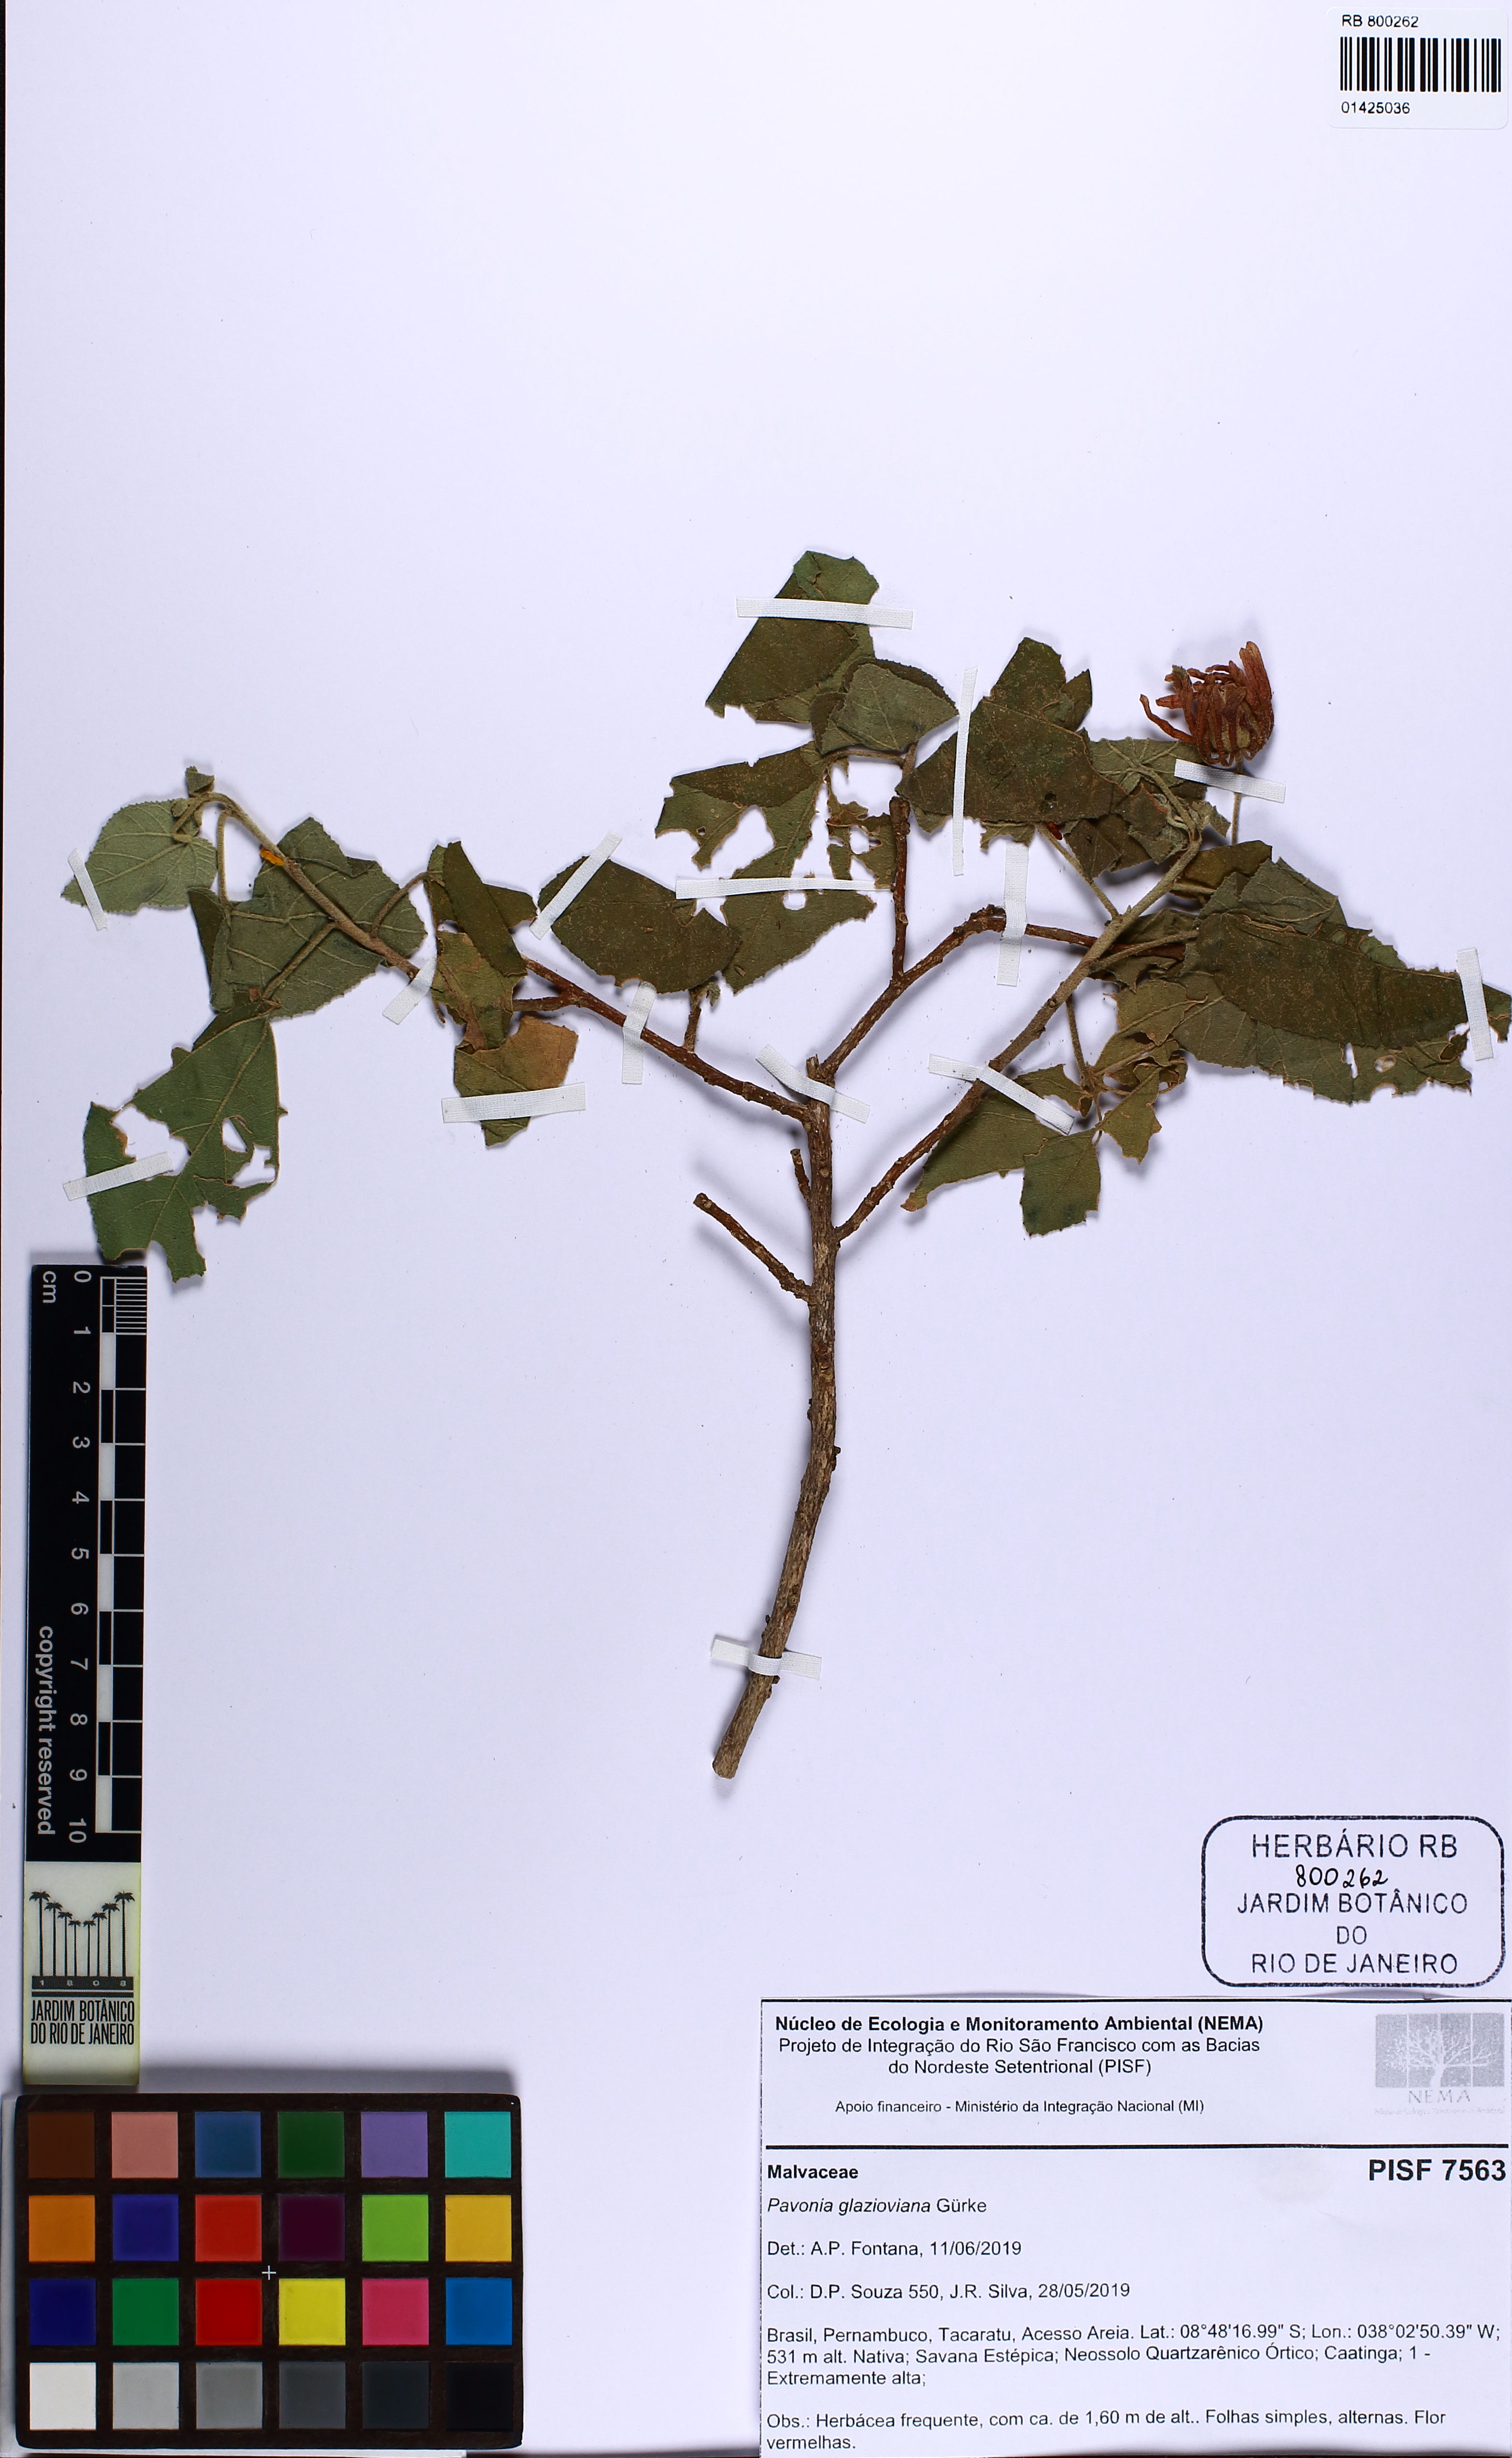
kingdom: Plantae
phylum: Tracheophyta
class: Magnoliopsida
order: Malvales
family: Malvaceae
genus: Pavonia
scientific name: Pavonia glazioviana
